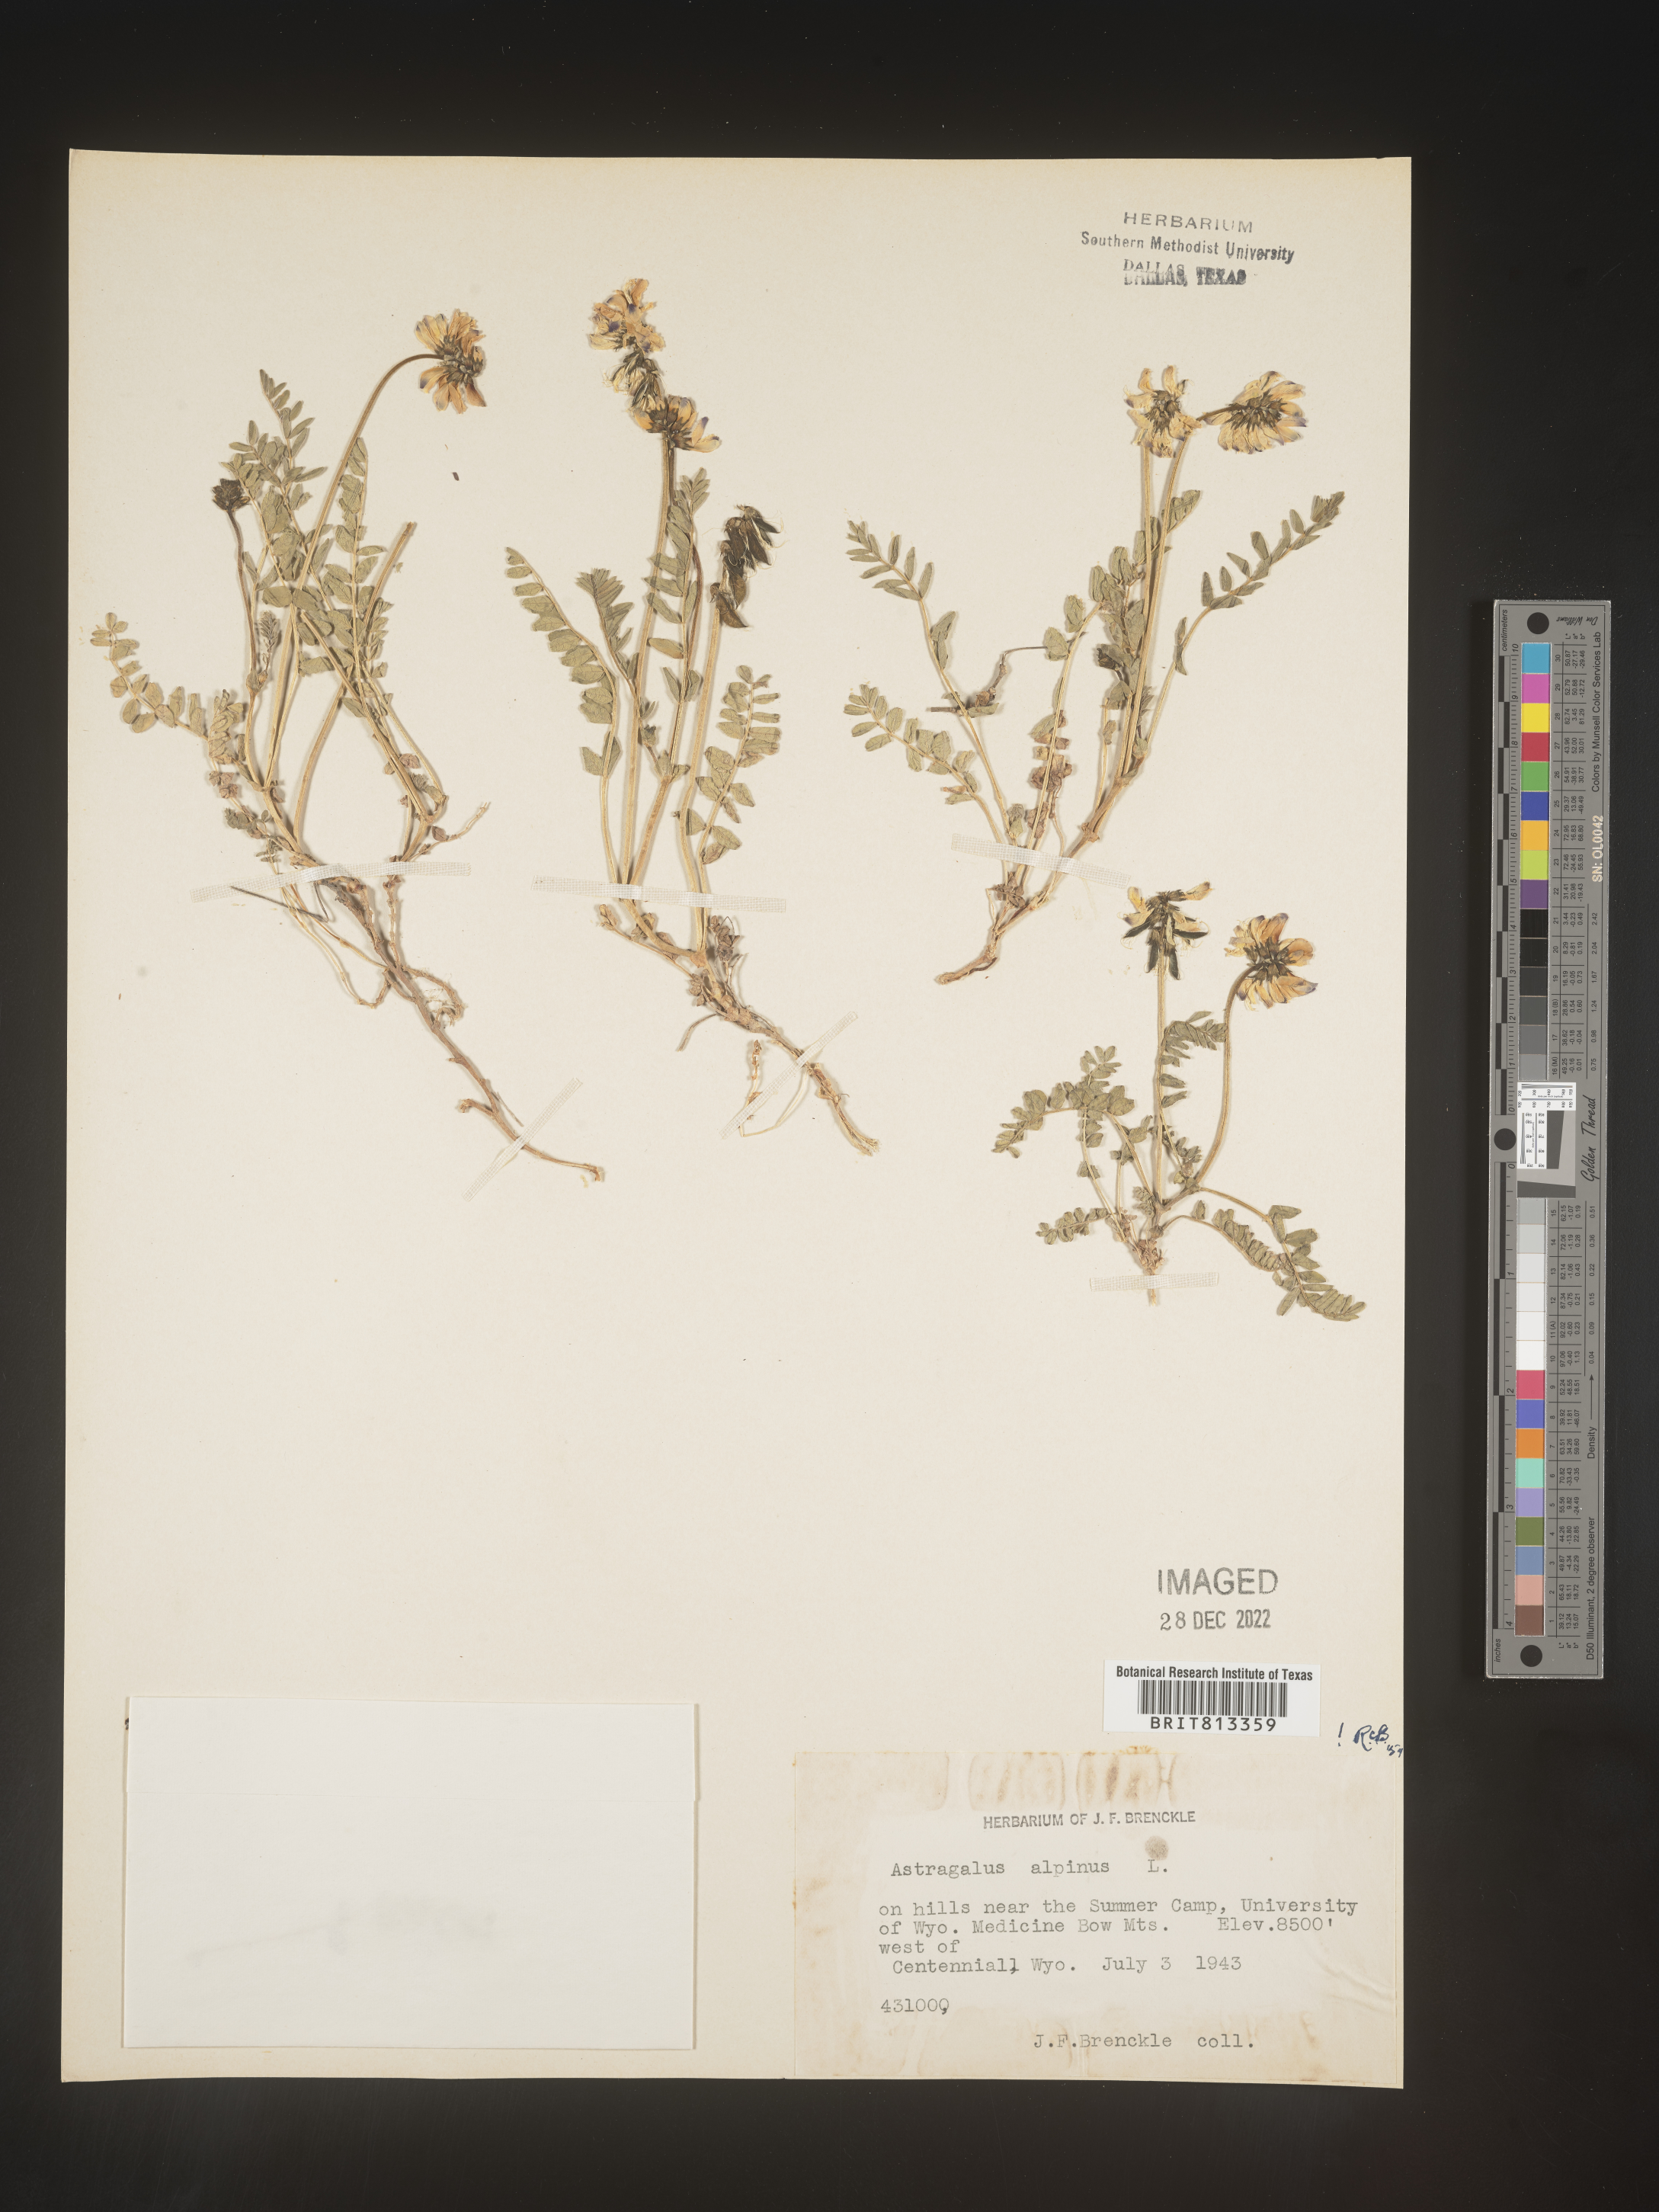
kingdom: Plantae
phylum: Tracheophyta
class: Magnoliopsida
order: Fabales
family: Fabaceae
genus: Astragalus
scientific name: Astragalus alpinus
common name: Alpine milk-vetch
